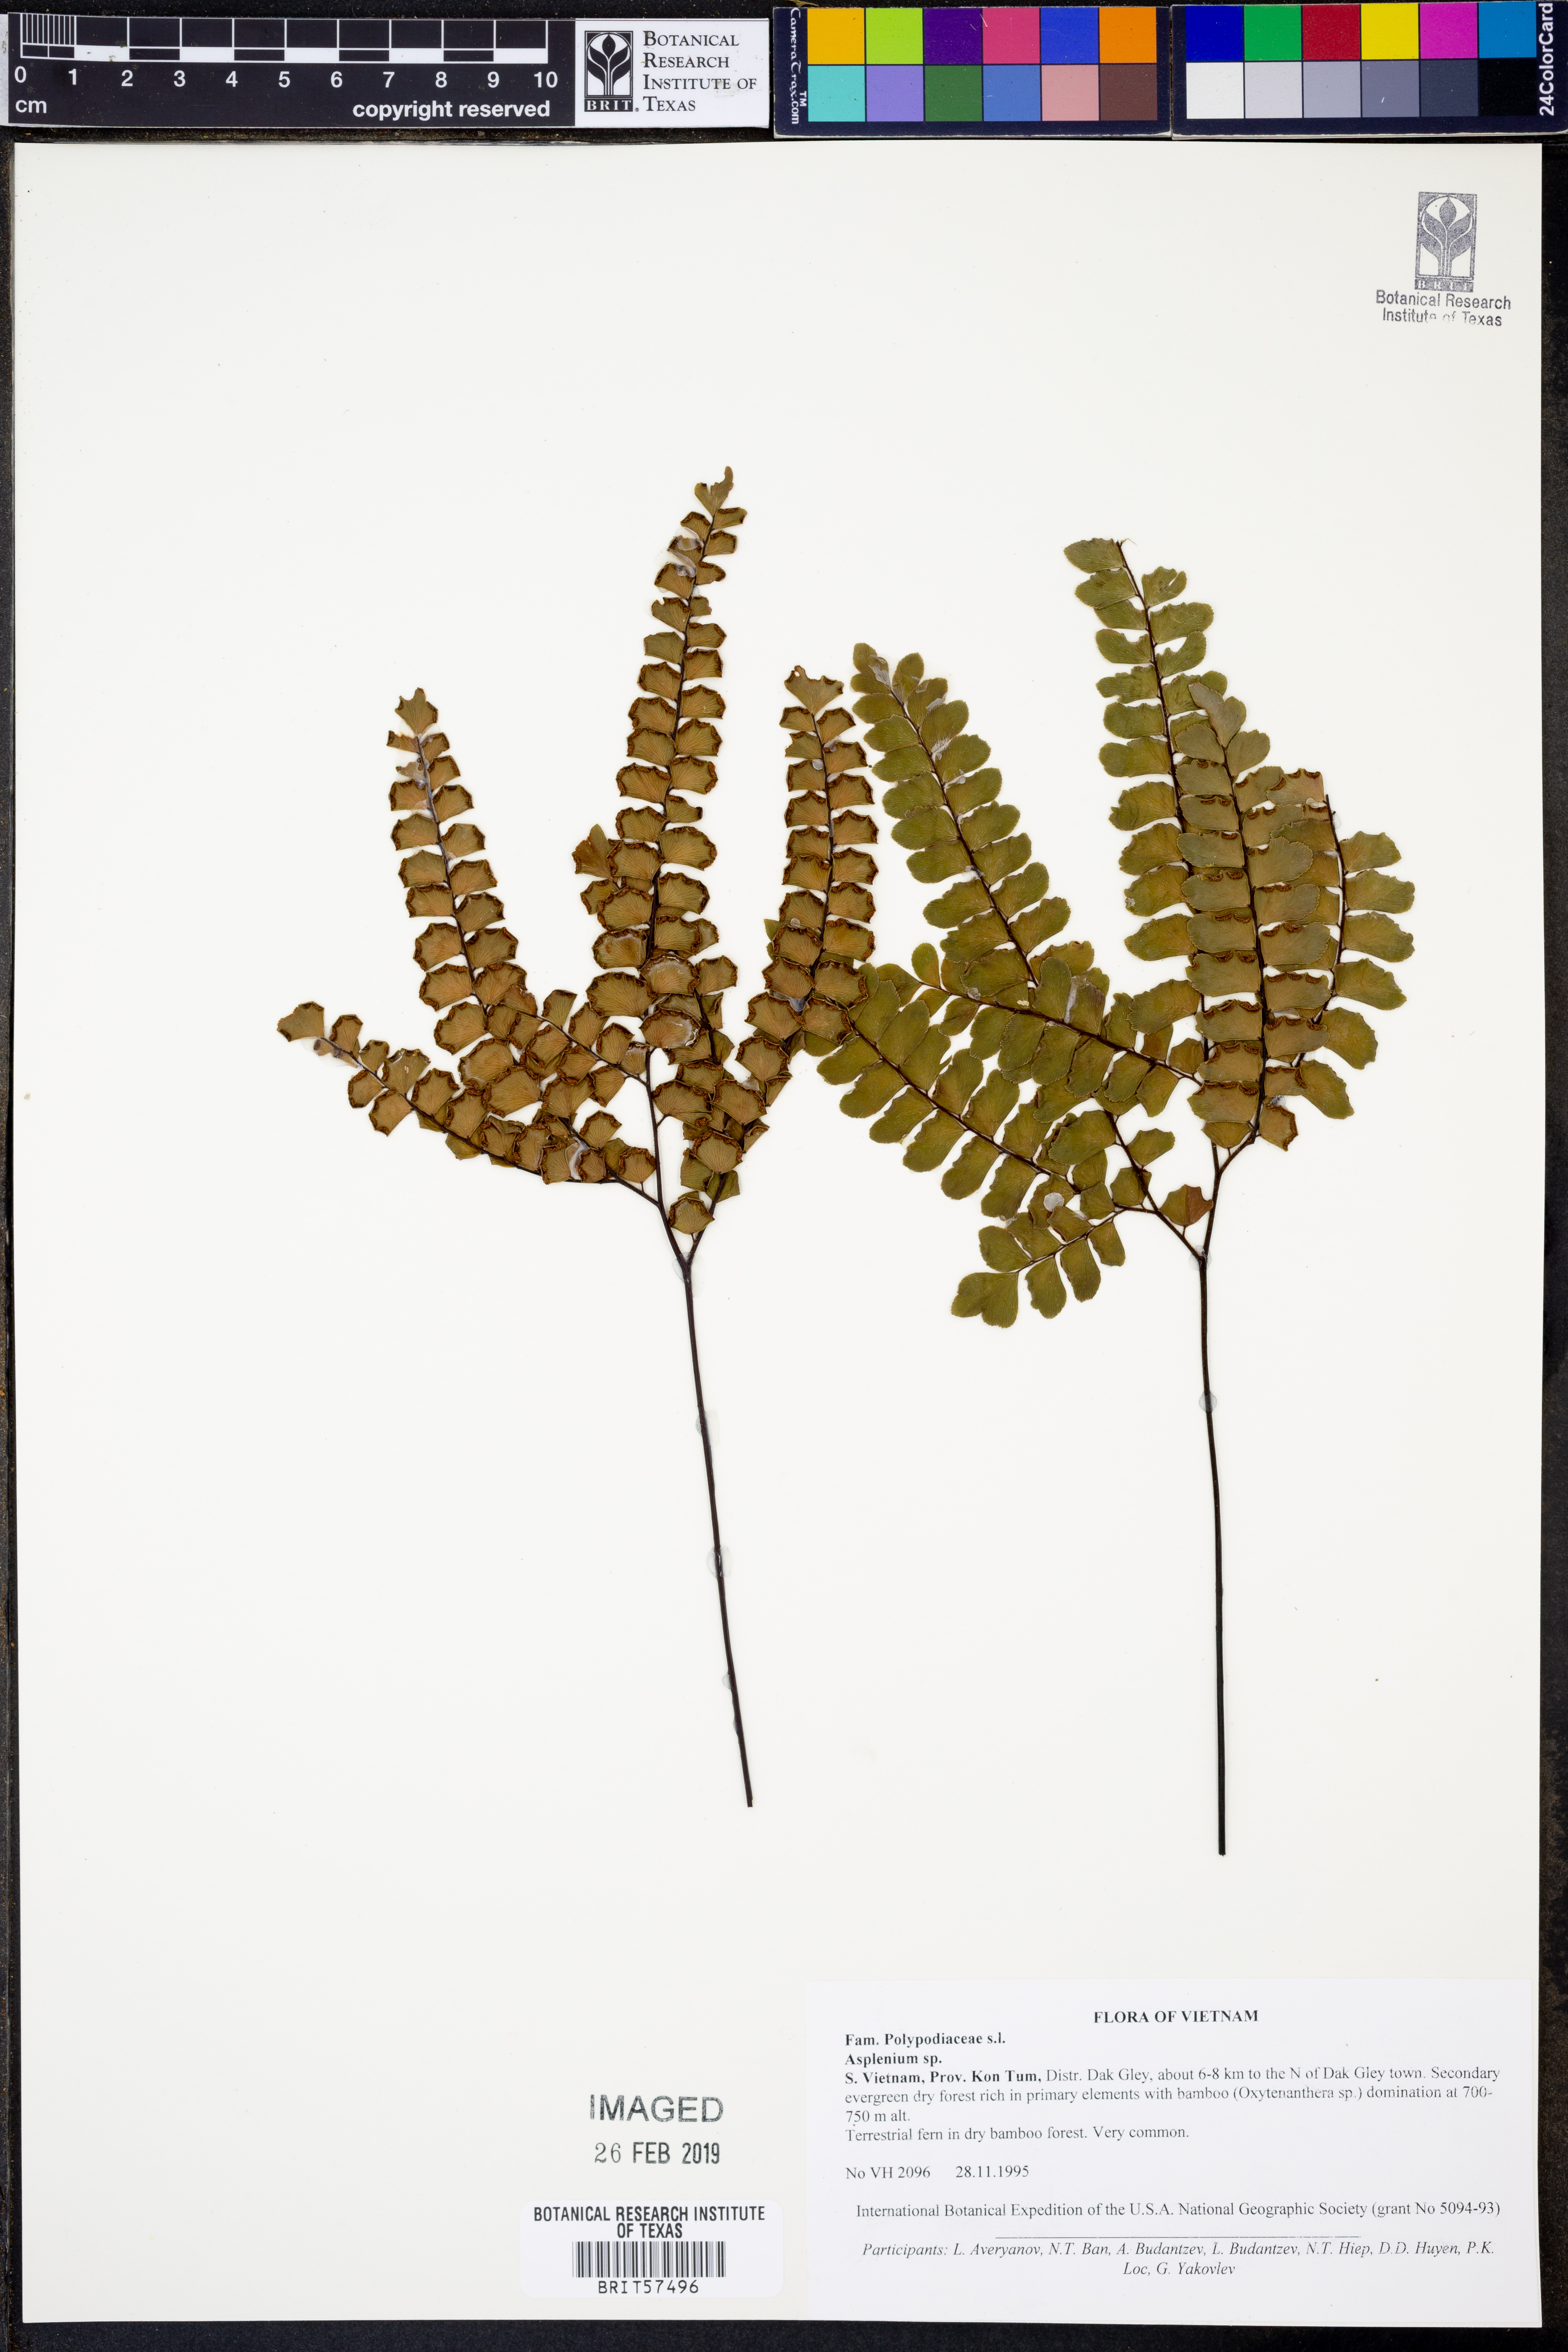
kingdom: Plantae
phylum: Tracheophyta
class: Polypodiopsida
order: Polypodiales
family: Aspleniaceae
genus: Asplenium
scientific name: Asplenium
